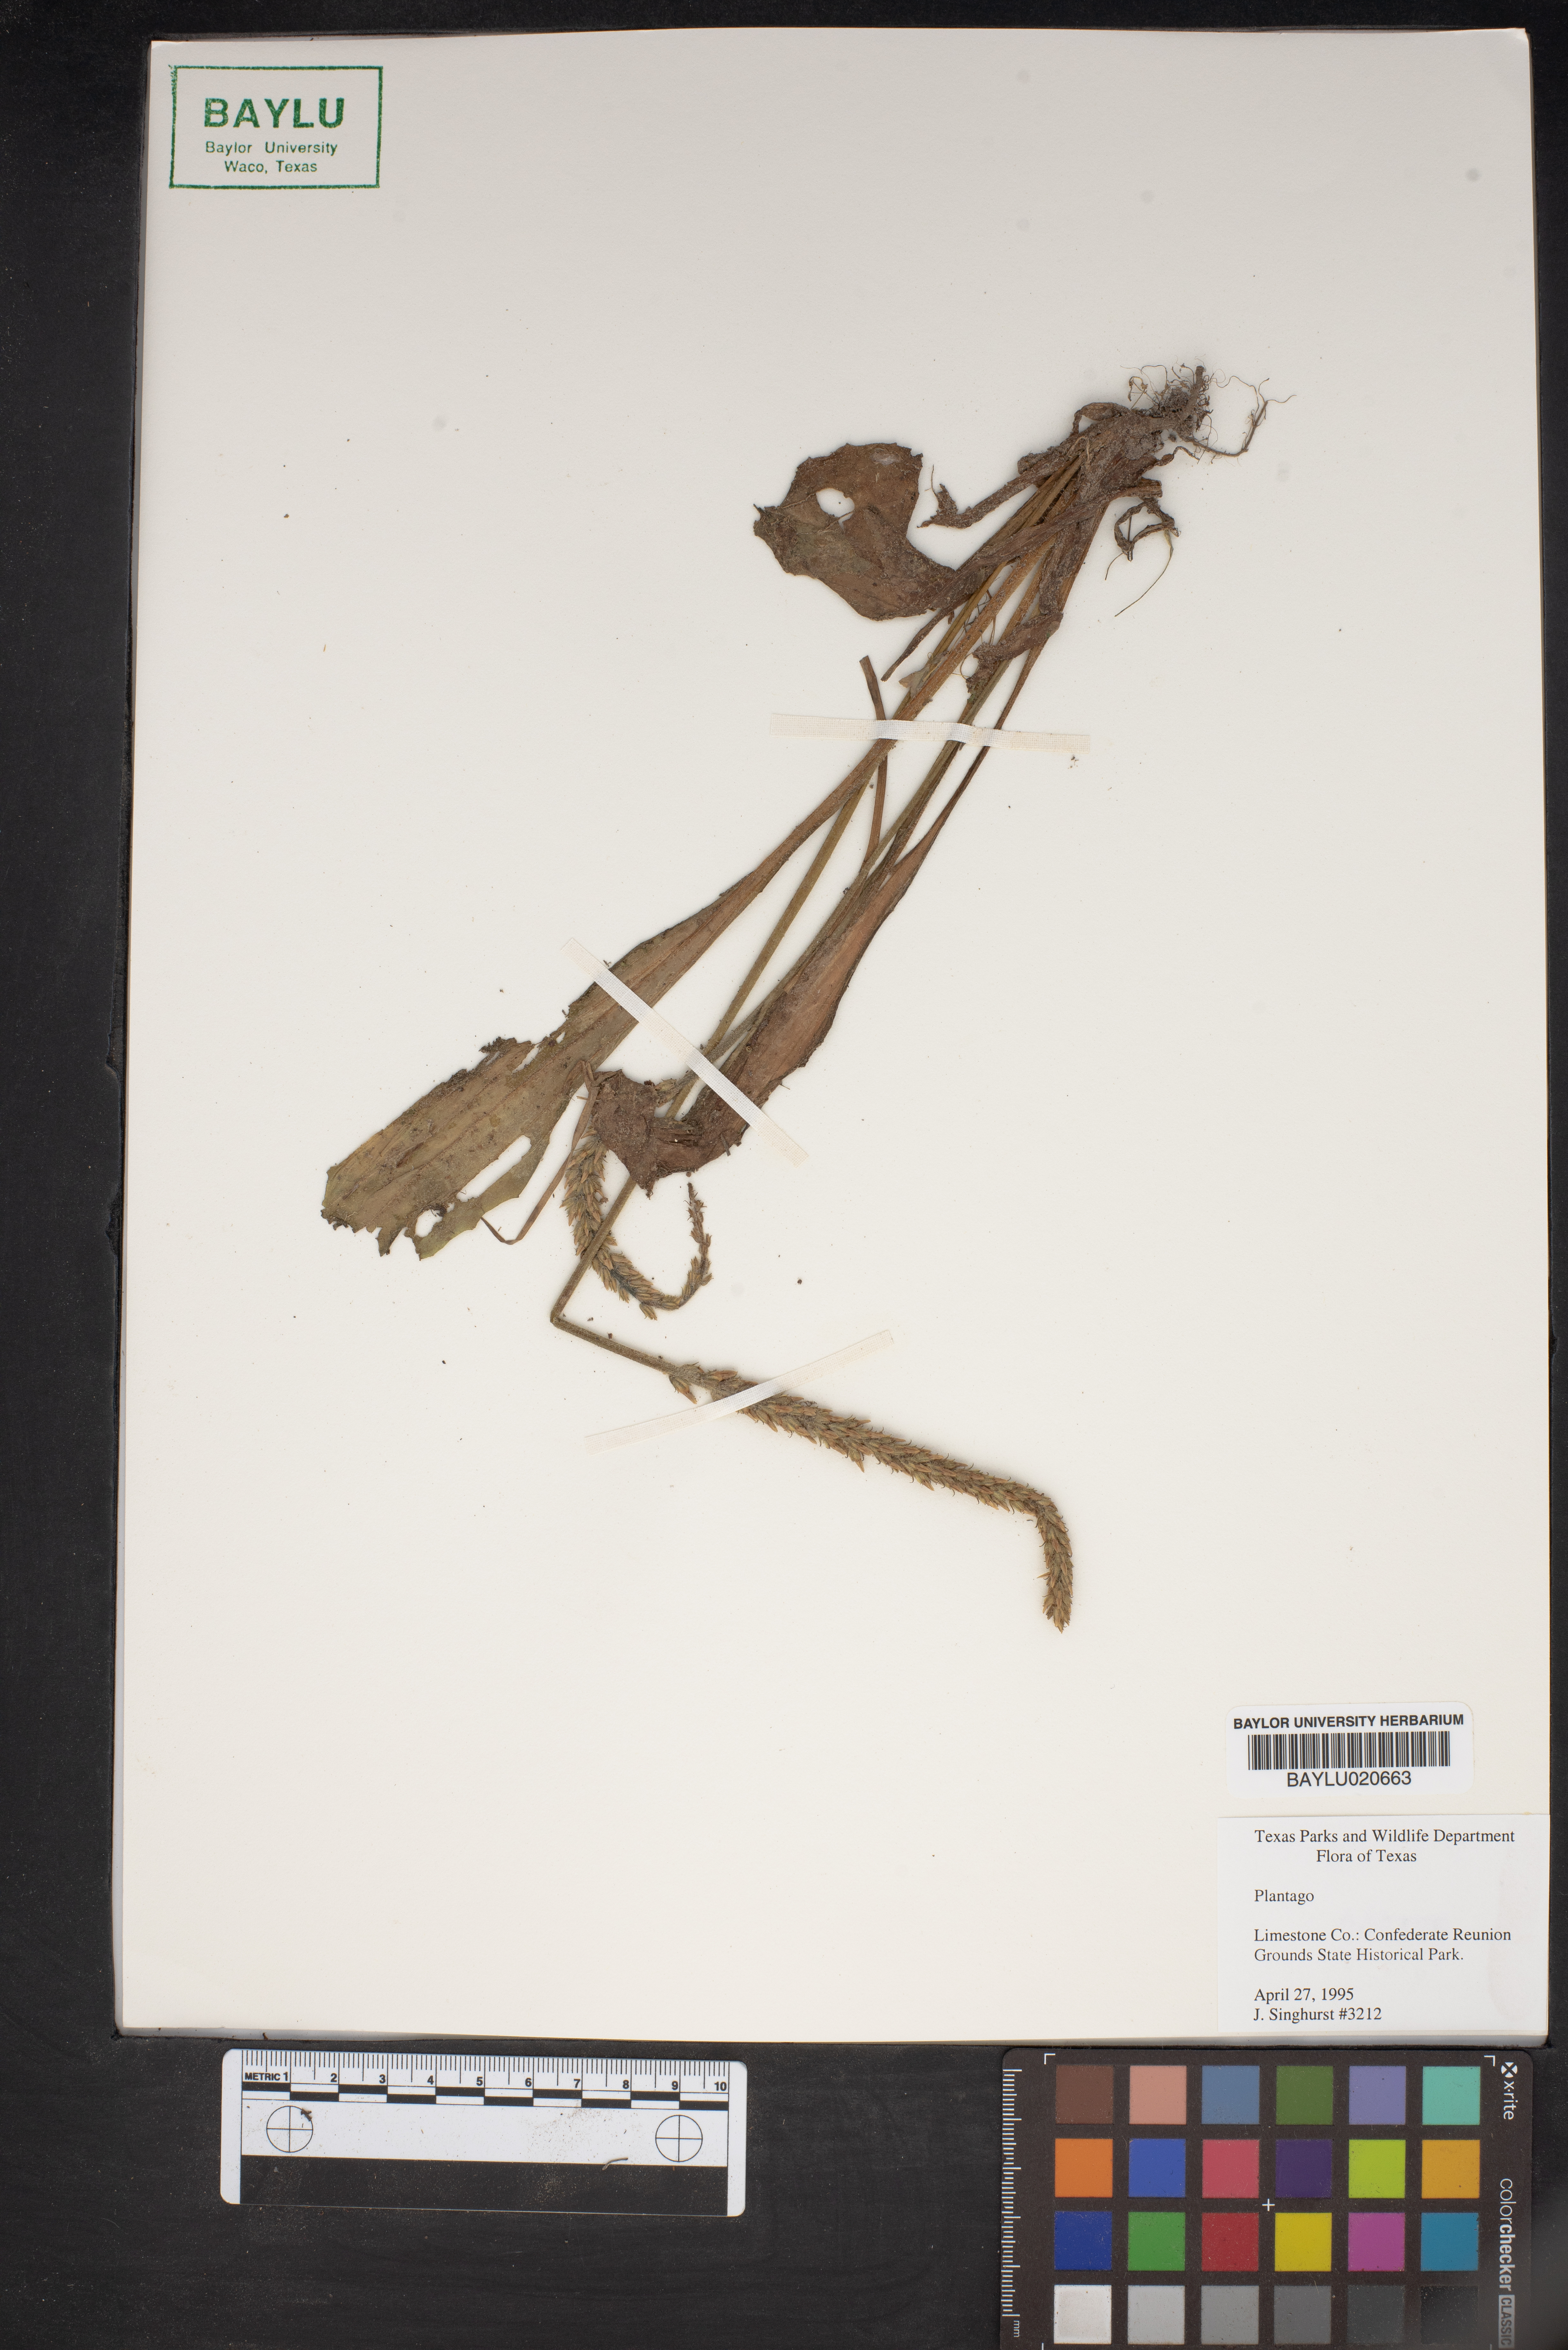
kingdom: Plantae
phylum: Tracheophyta
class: Magnoliopsida
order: Lamiales
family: Plantaginaceae
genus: Plantago
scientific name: Plantago
